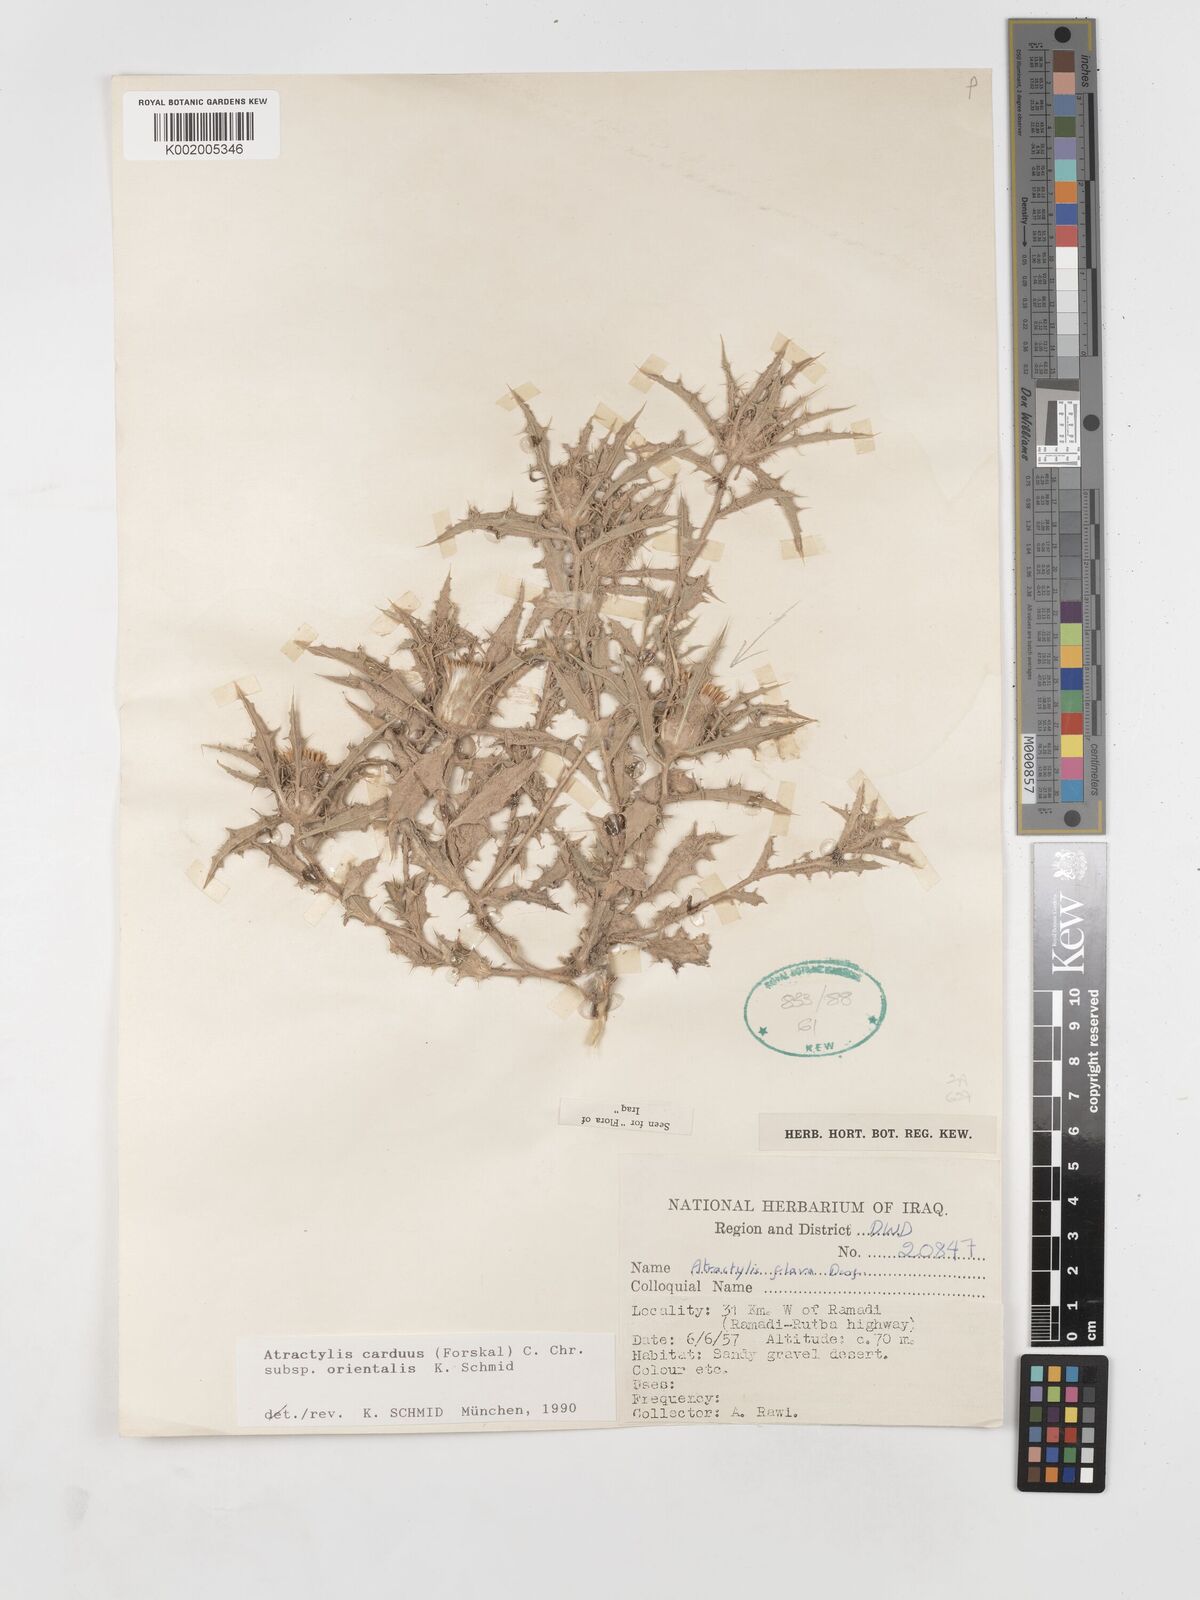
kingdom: Plantae
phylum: Tracheophyta
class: Magnoliopsida
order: Asterales
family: Asteraceae
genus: Atractylis
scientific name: Atractylis carduus
